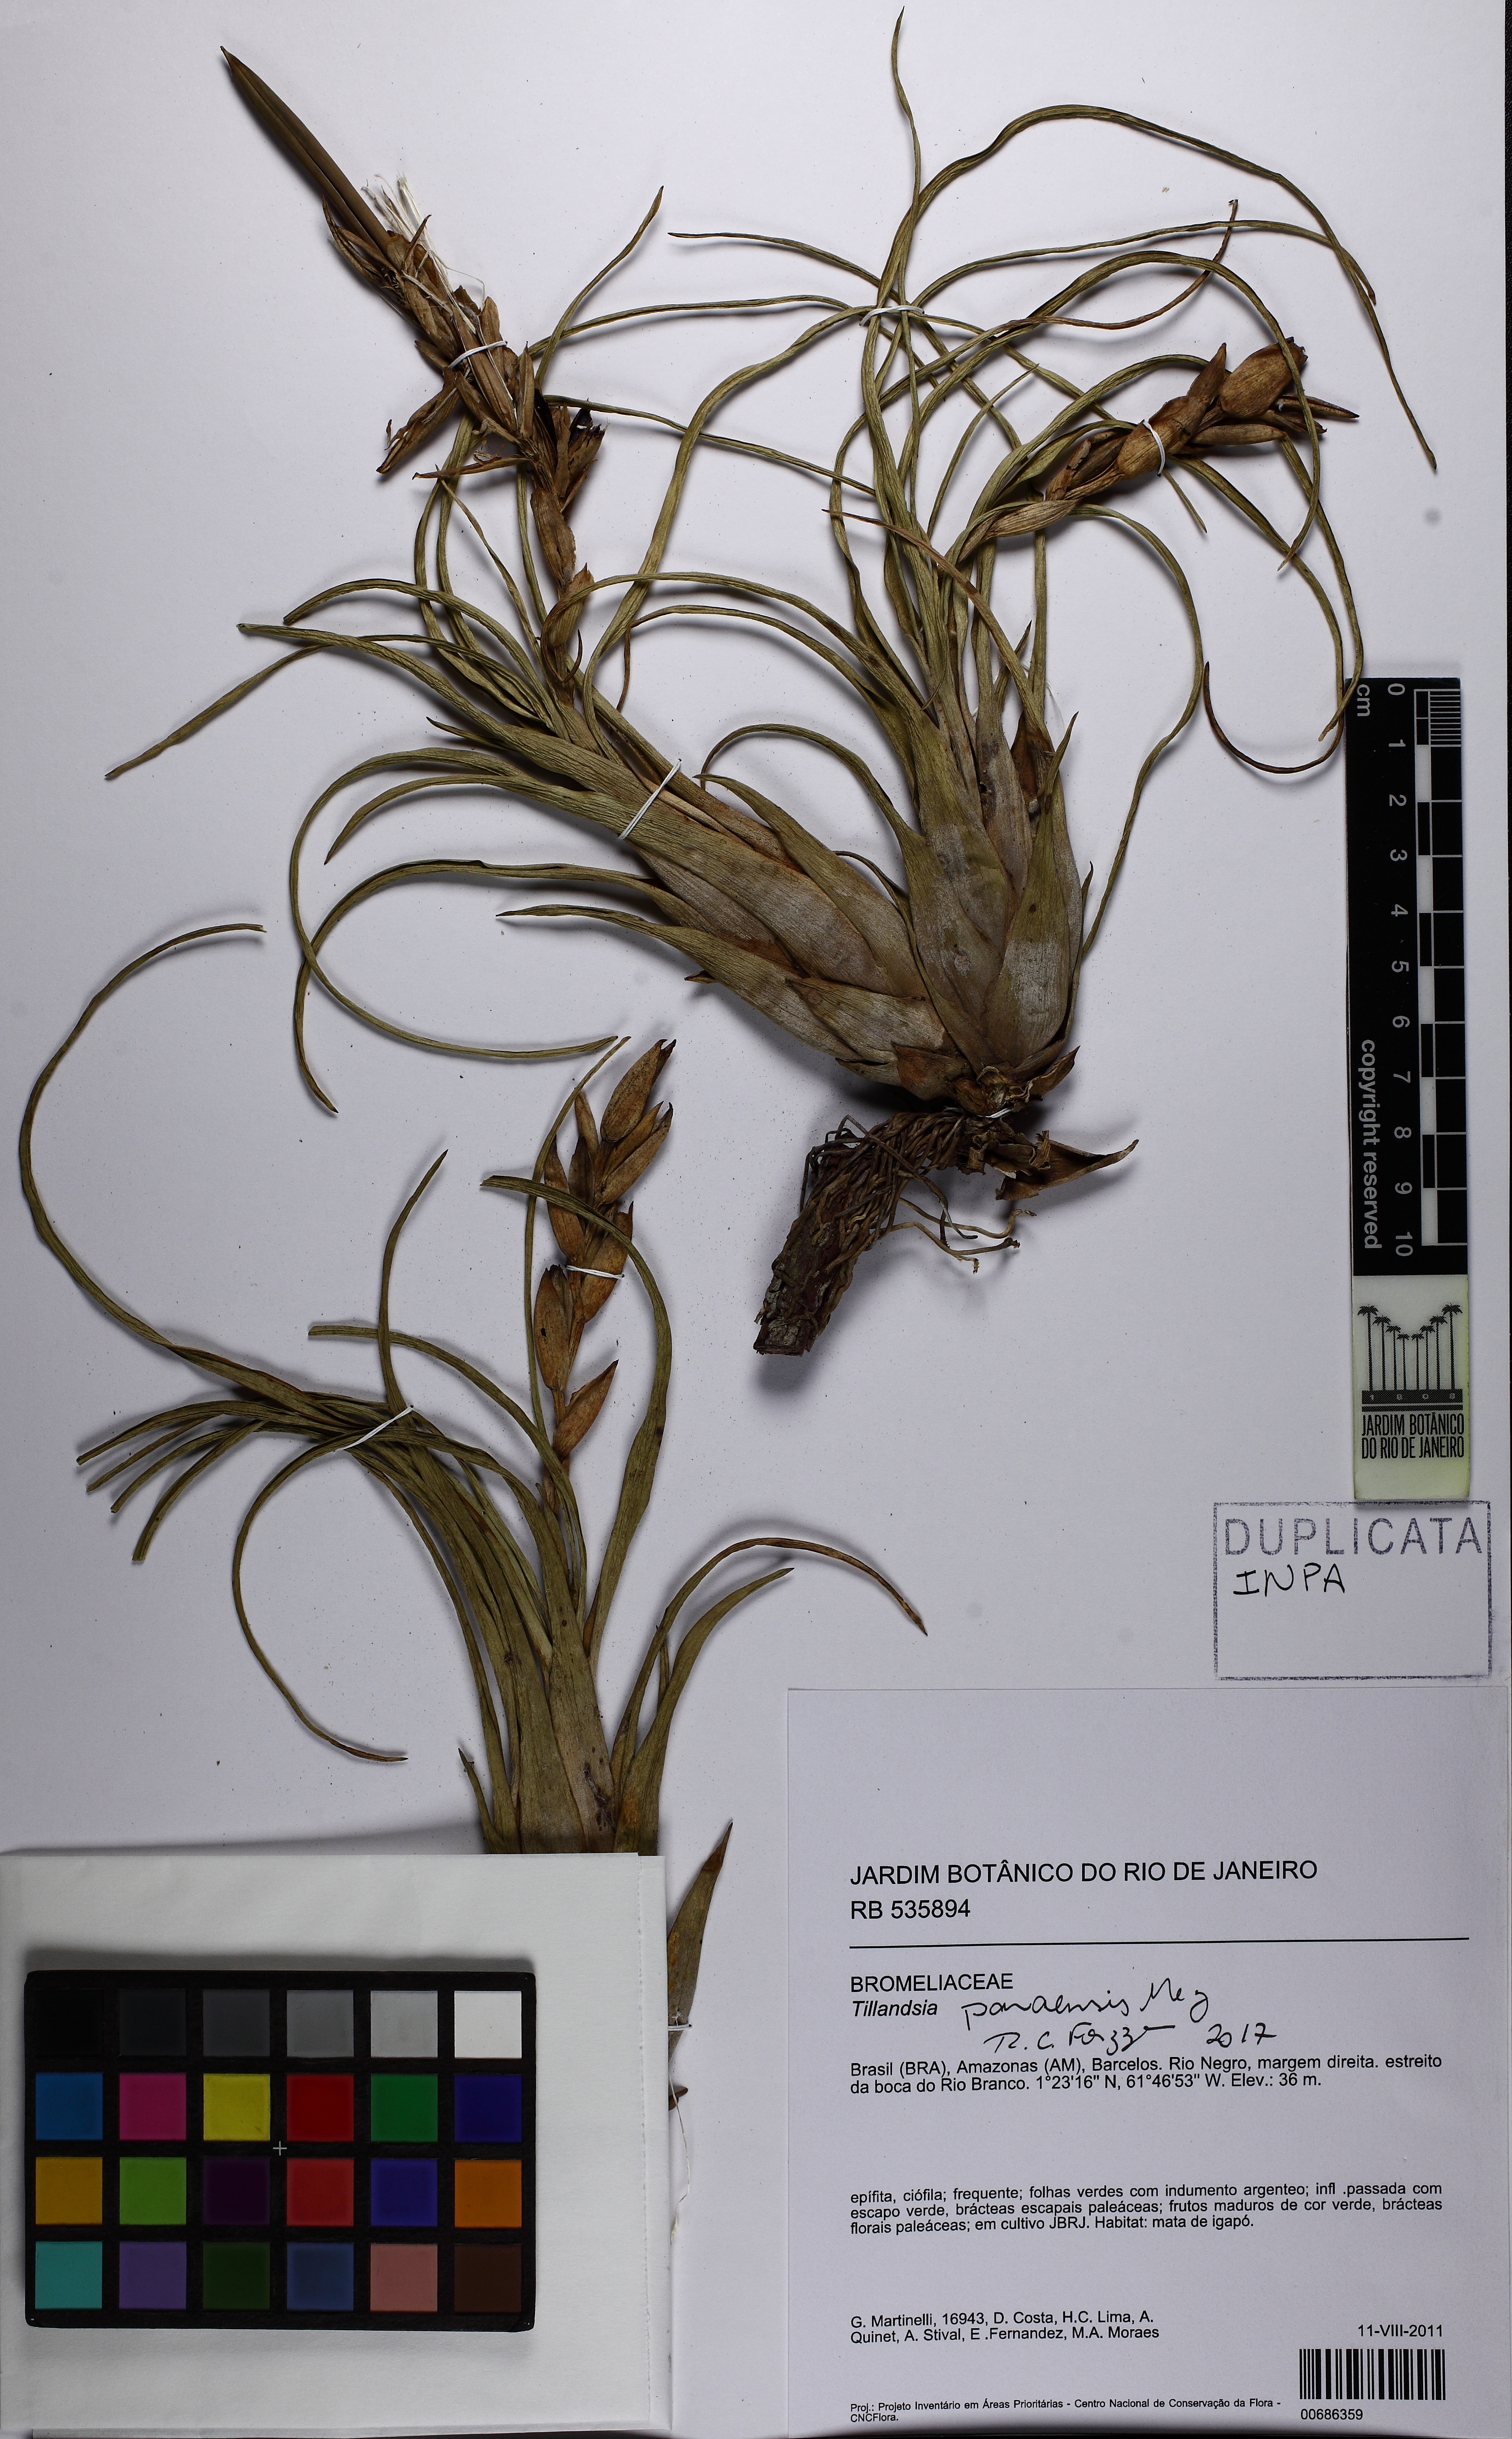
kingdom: Plantae
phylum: Tracheophyta
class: Liliopsida
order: Poales
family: Bromeliaceae
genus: Tillandsia
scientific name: Tillandsia paraensis
